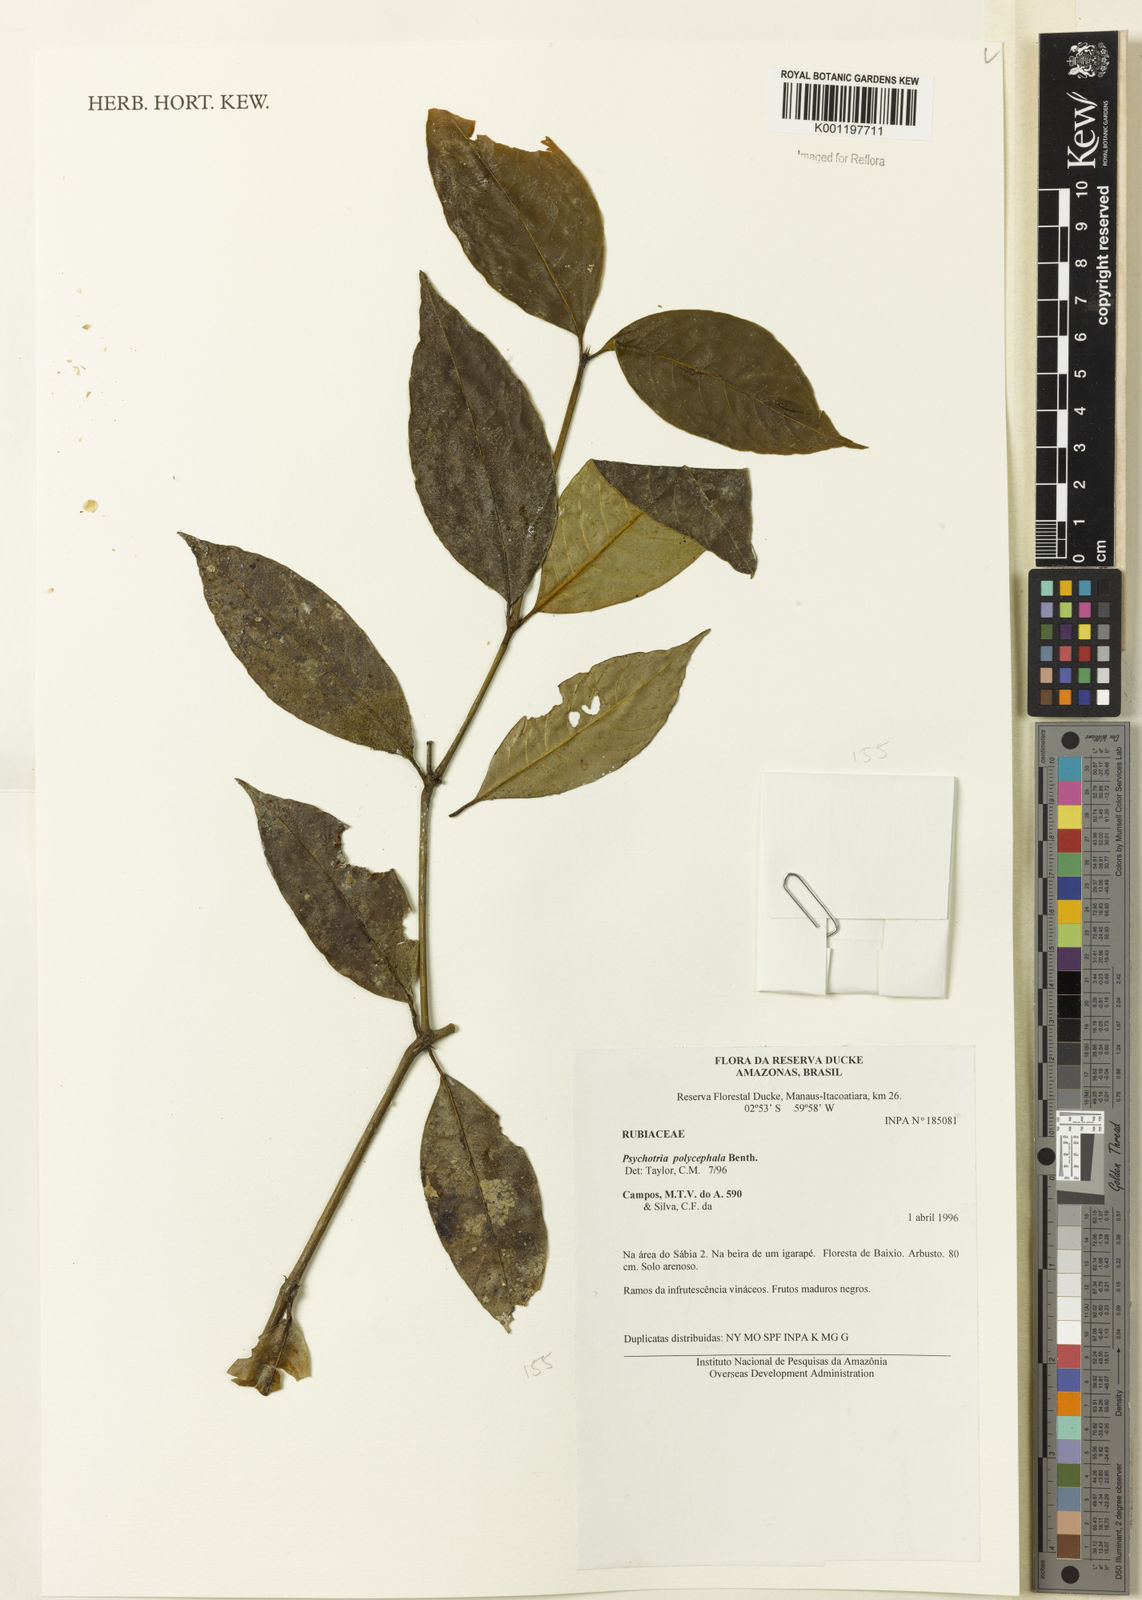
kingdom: Plantae
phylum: Tracheophyta
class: Magnoliopsida
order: Gentianales
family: Rubiaceae
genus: Palicourea
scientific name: Palicourea polycephala
